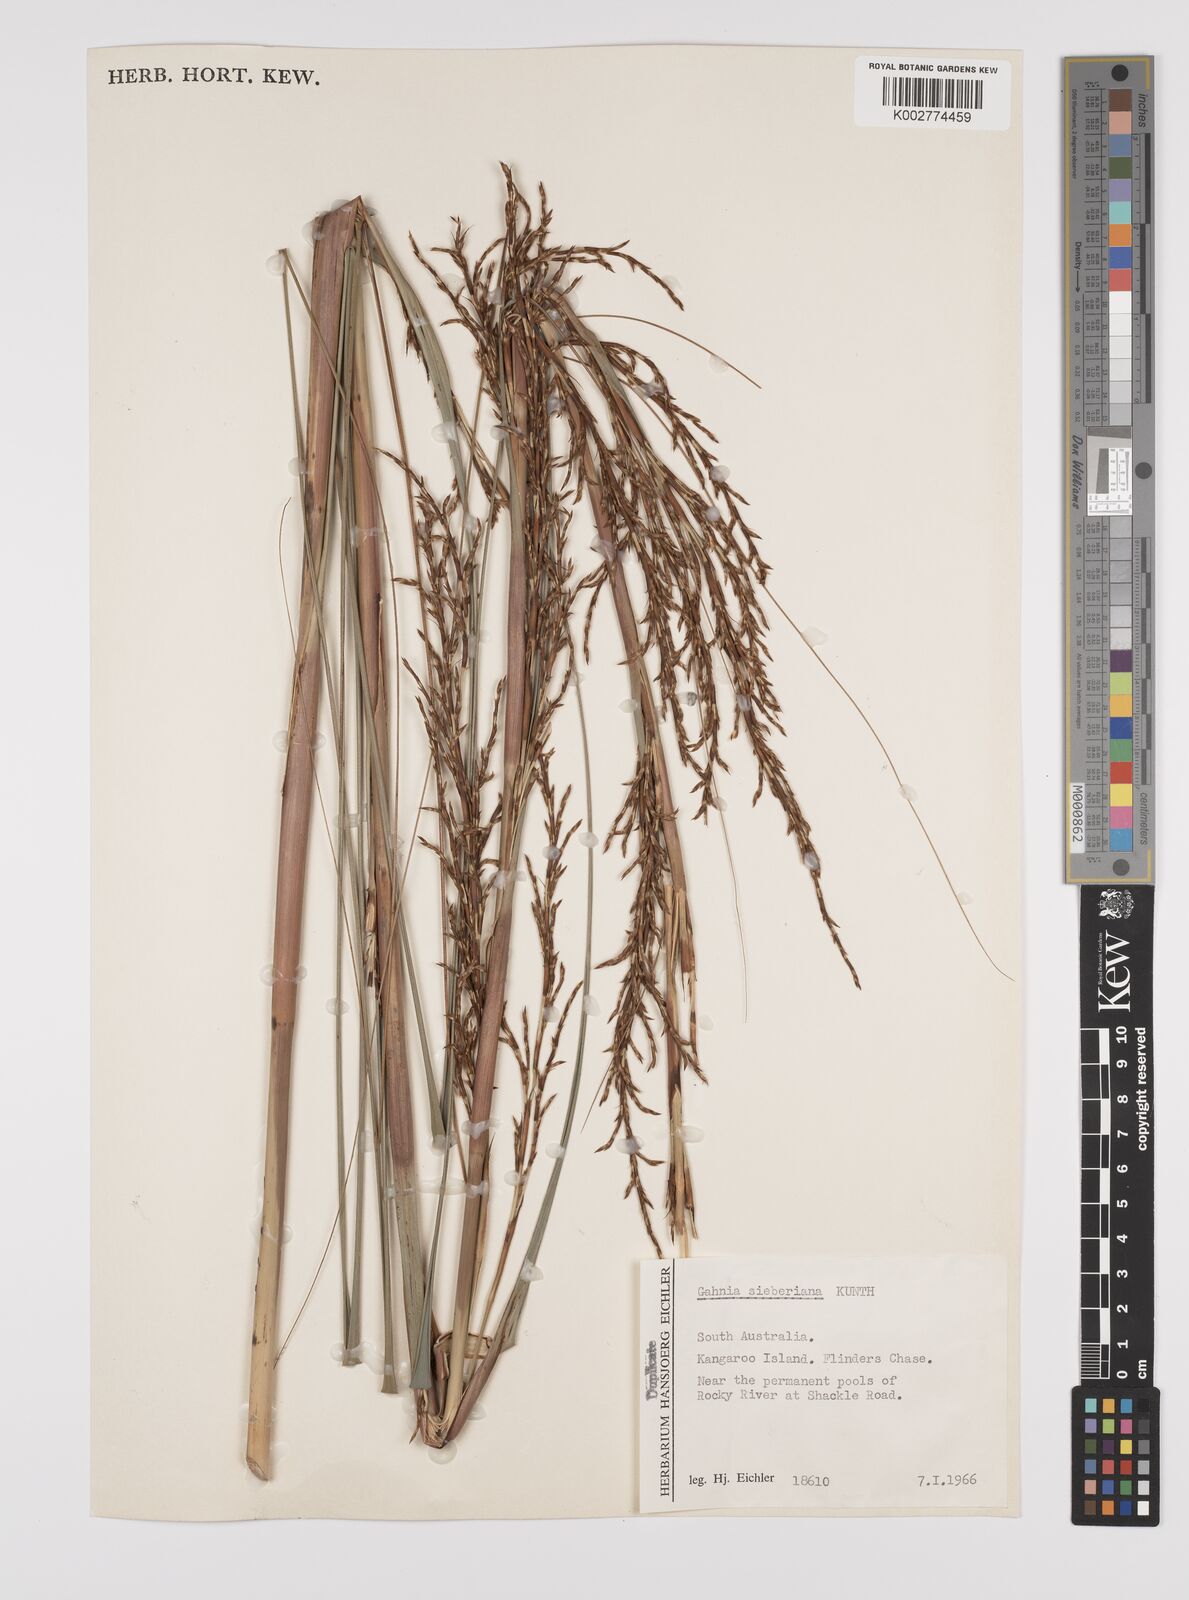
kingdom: Plantae
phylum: Tracheophyta
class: Liliopsida
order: Poales
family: Cyperaceae
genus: Gahnia
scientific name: Gahnia sieberiana
